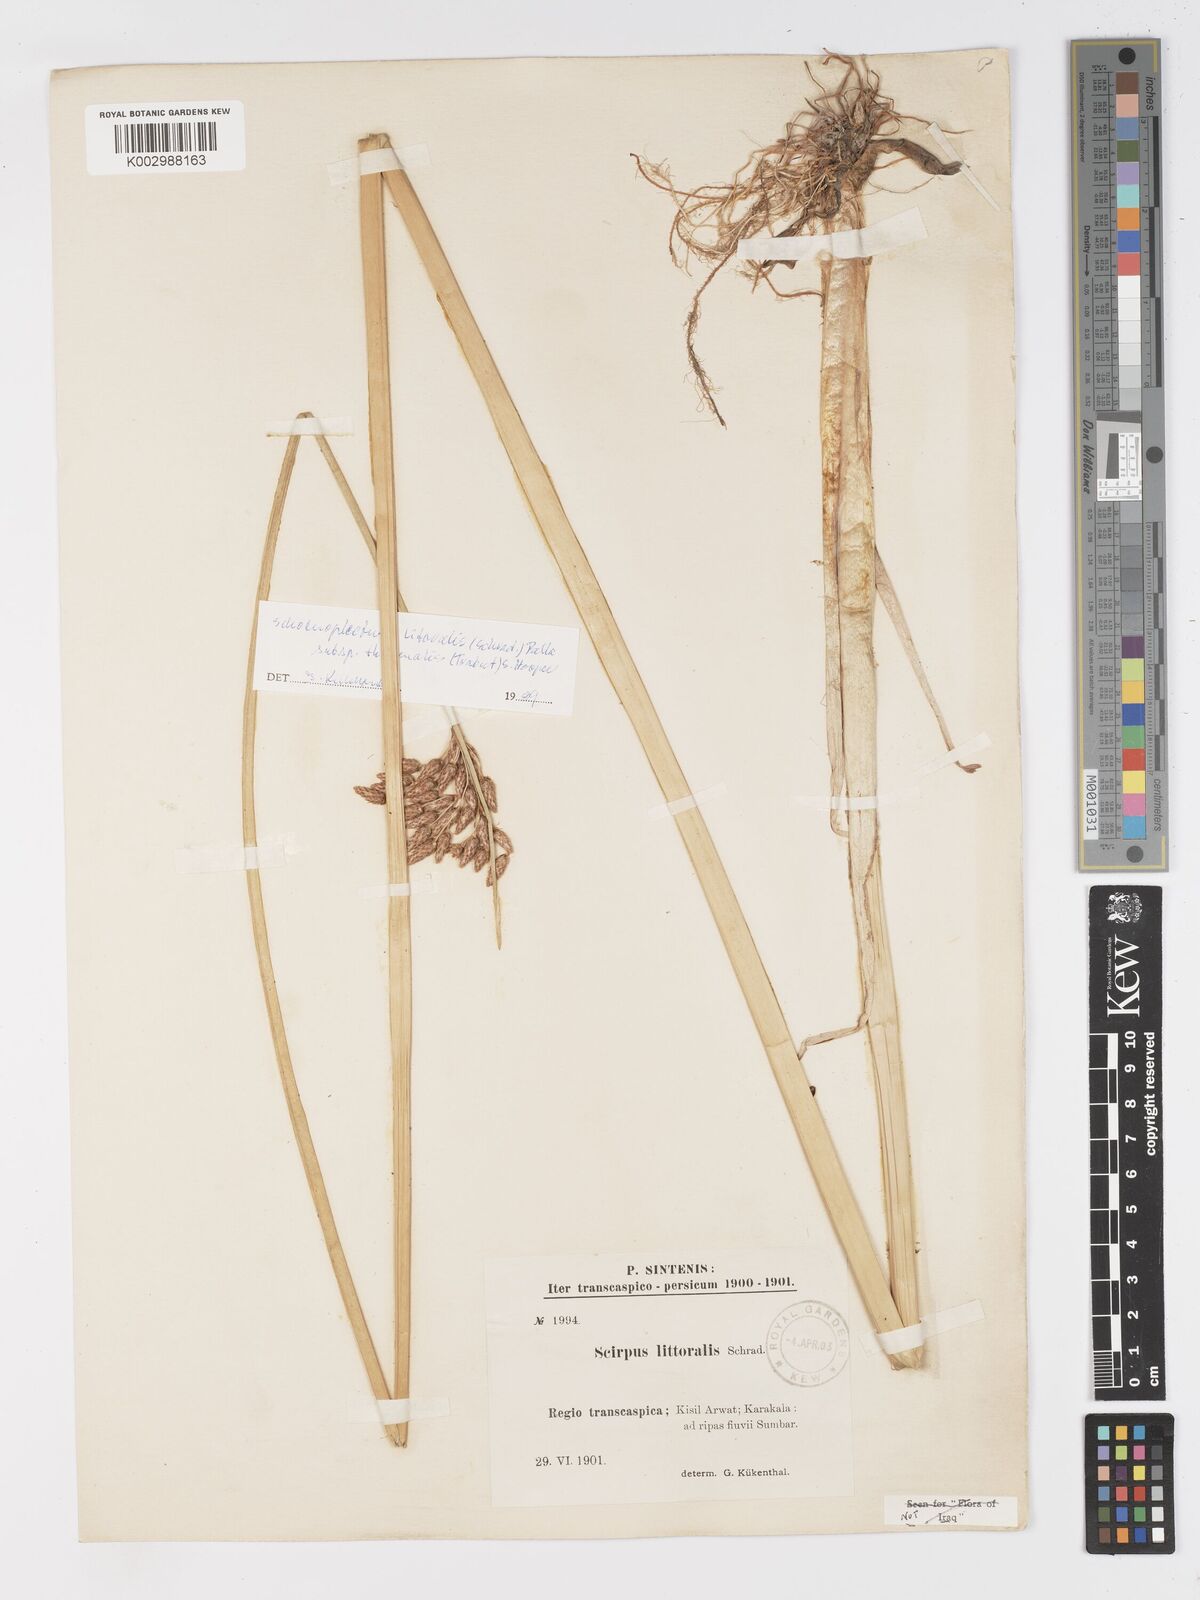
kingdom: Plantae
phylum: Tracheophyta
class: Liliopsida
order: Poales
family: Cyperaceae
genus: Schoenoplectus
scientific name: Schoenoplectus litoralis
